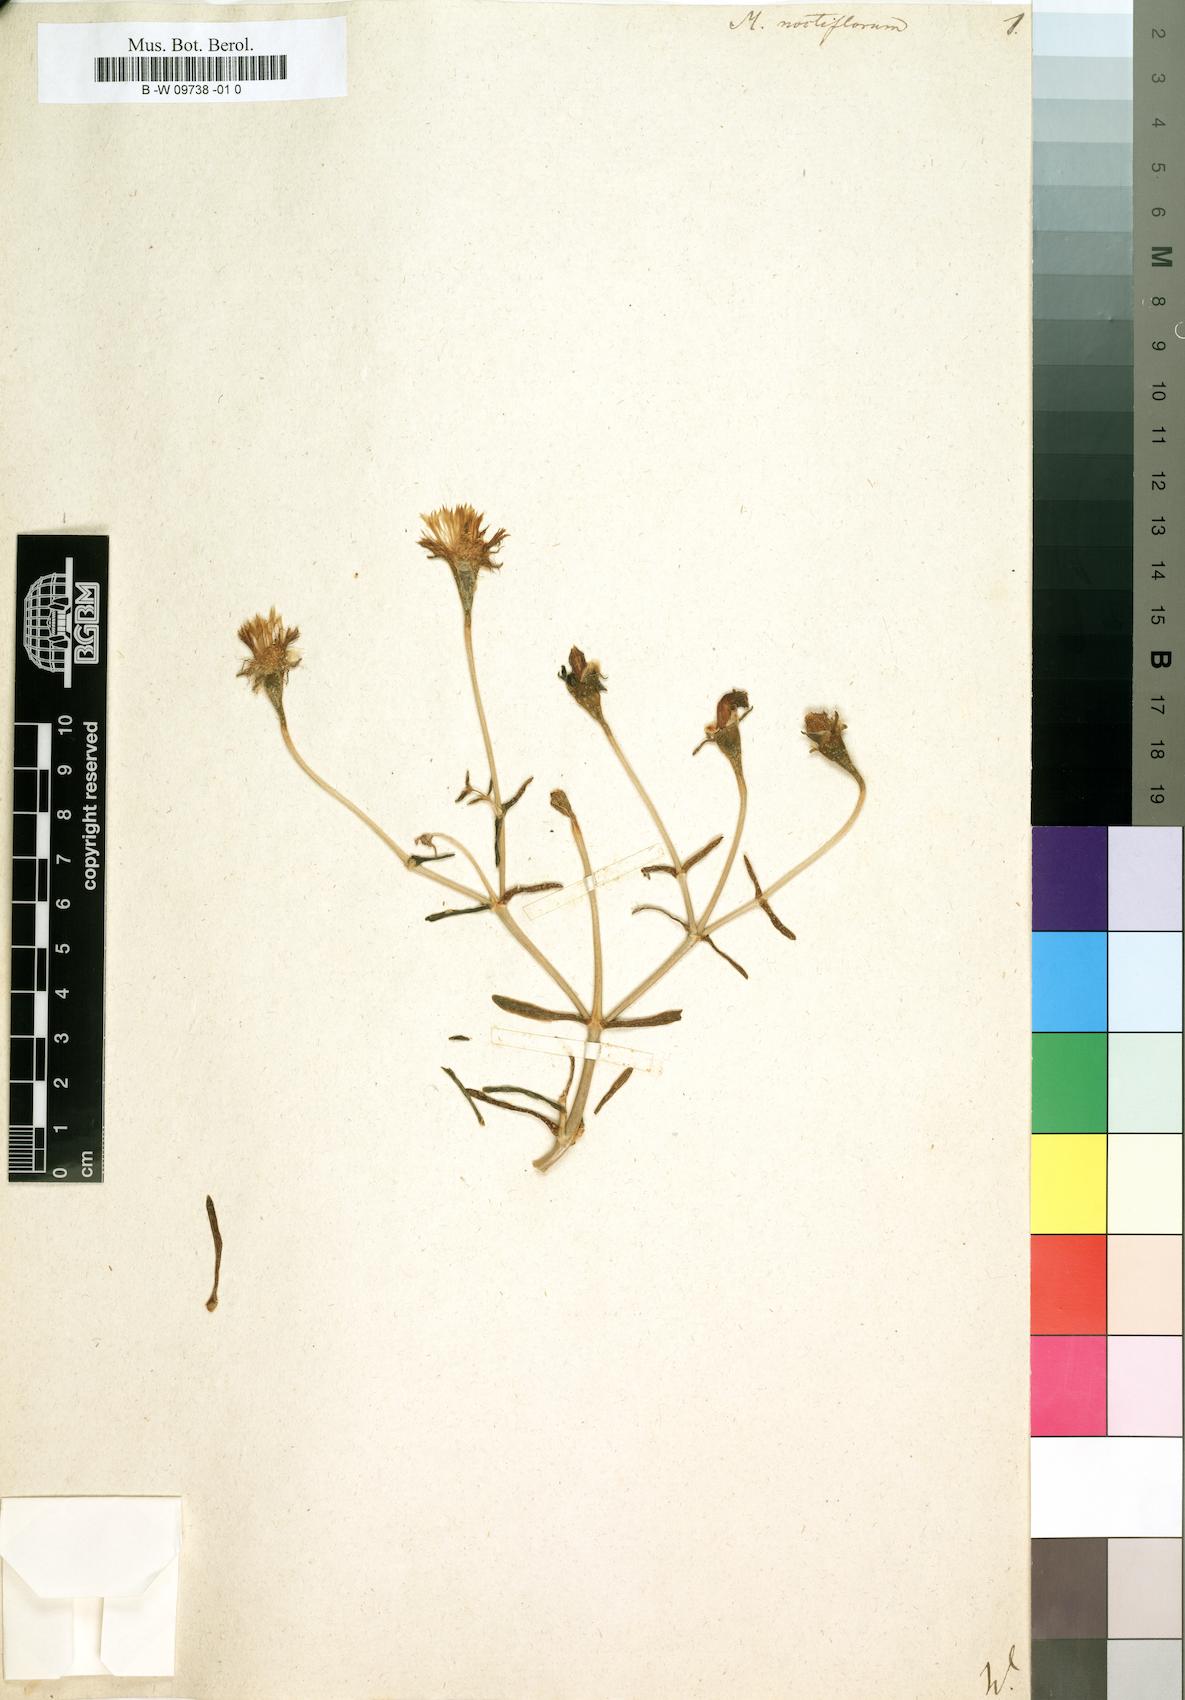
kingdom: Plantae
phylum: Tracheophyta
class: Magnoliopsida
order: Caryophyllales
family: Aizoaceae
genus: Mesembryanthemum
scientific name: Mesembryanthemum noctiflorum
